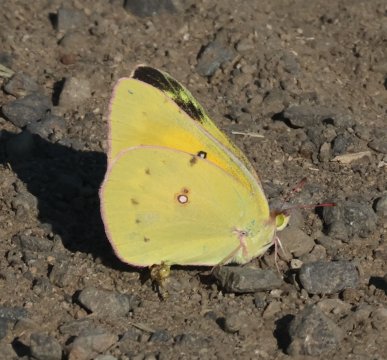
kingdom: Animalia
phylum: Arthropoda
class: Insecta
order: Lepidoptera
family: Pieridae
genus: Colias
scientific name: Colias eurytheme
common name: Orange Sulphur
